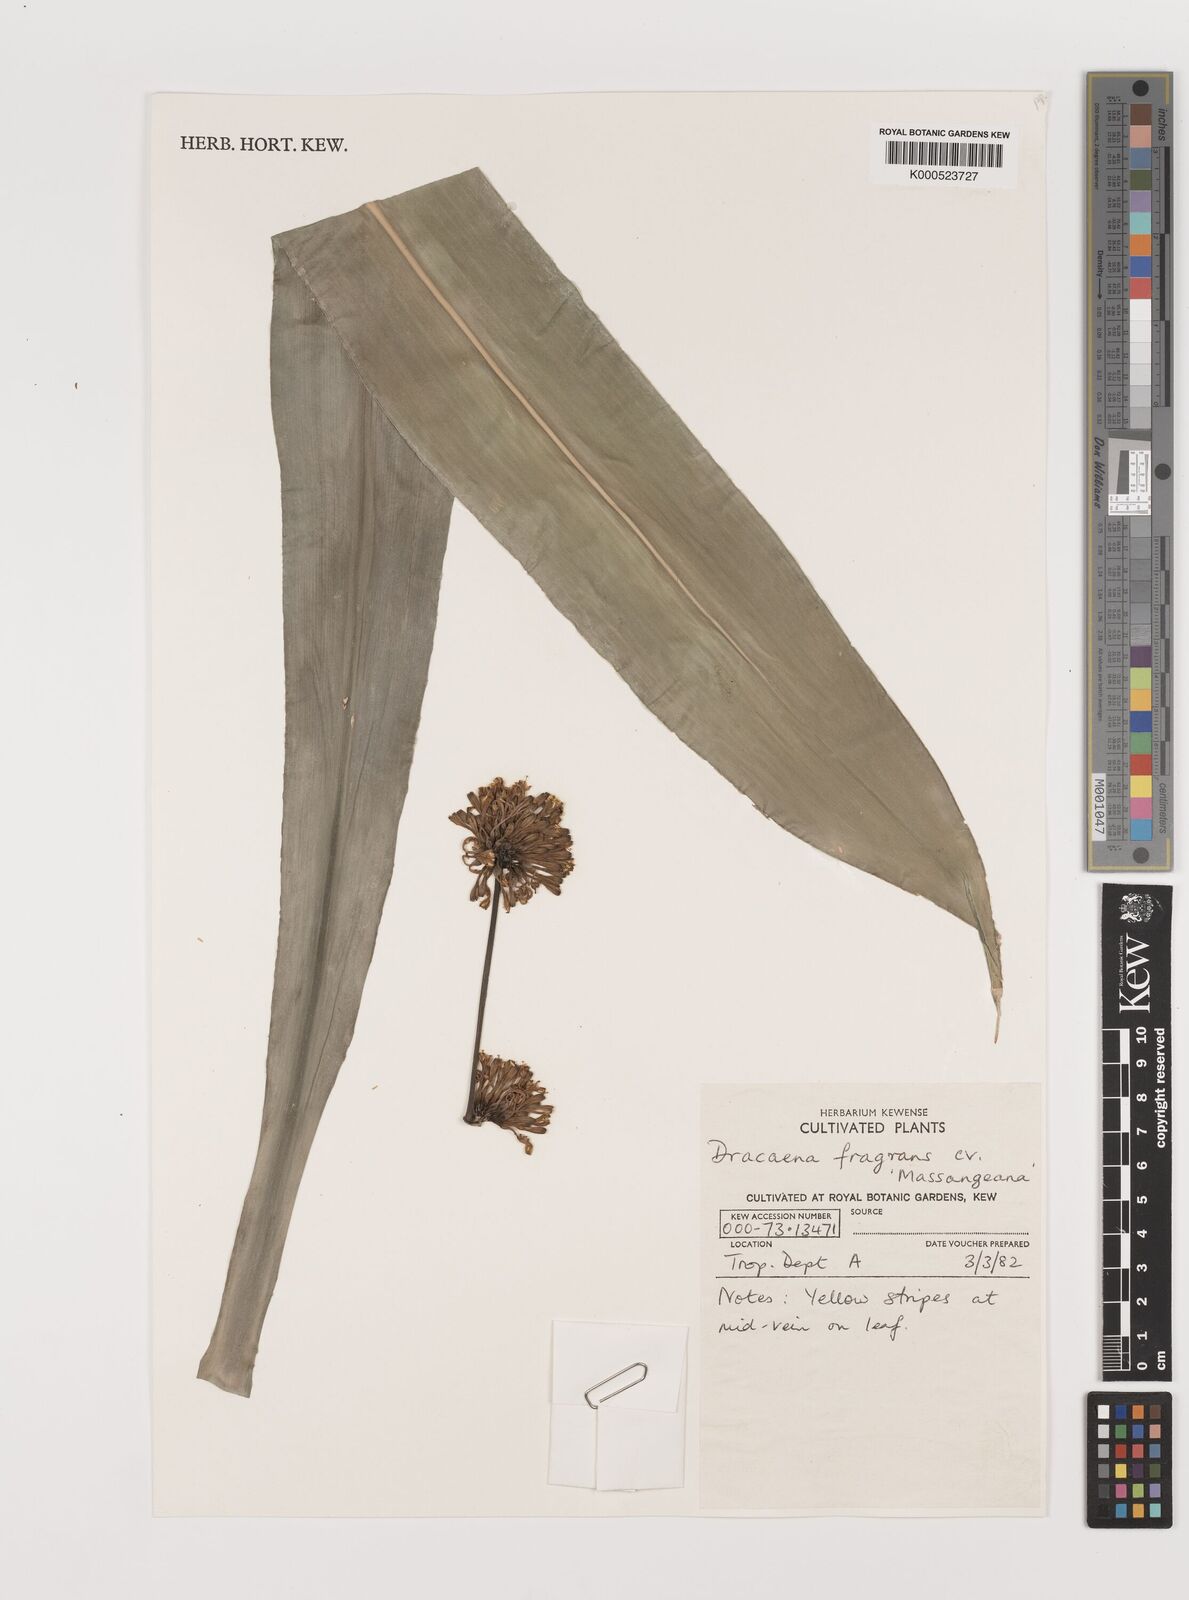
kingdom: Plantae
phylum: Tracheophyta
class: Liliopsida
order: Asparagales
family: Asparagaceae
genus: Dracaena
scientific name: Dracaena fragrans
